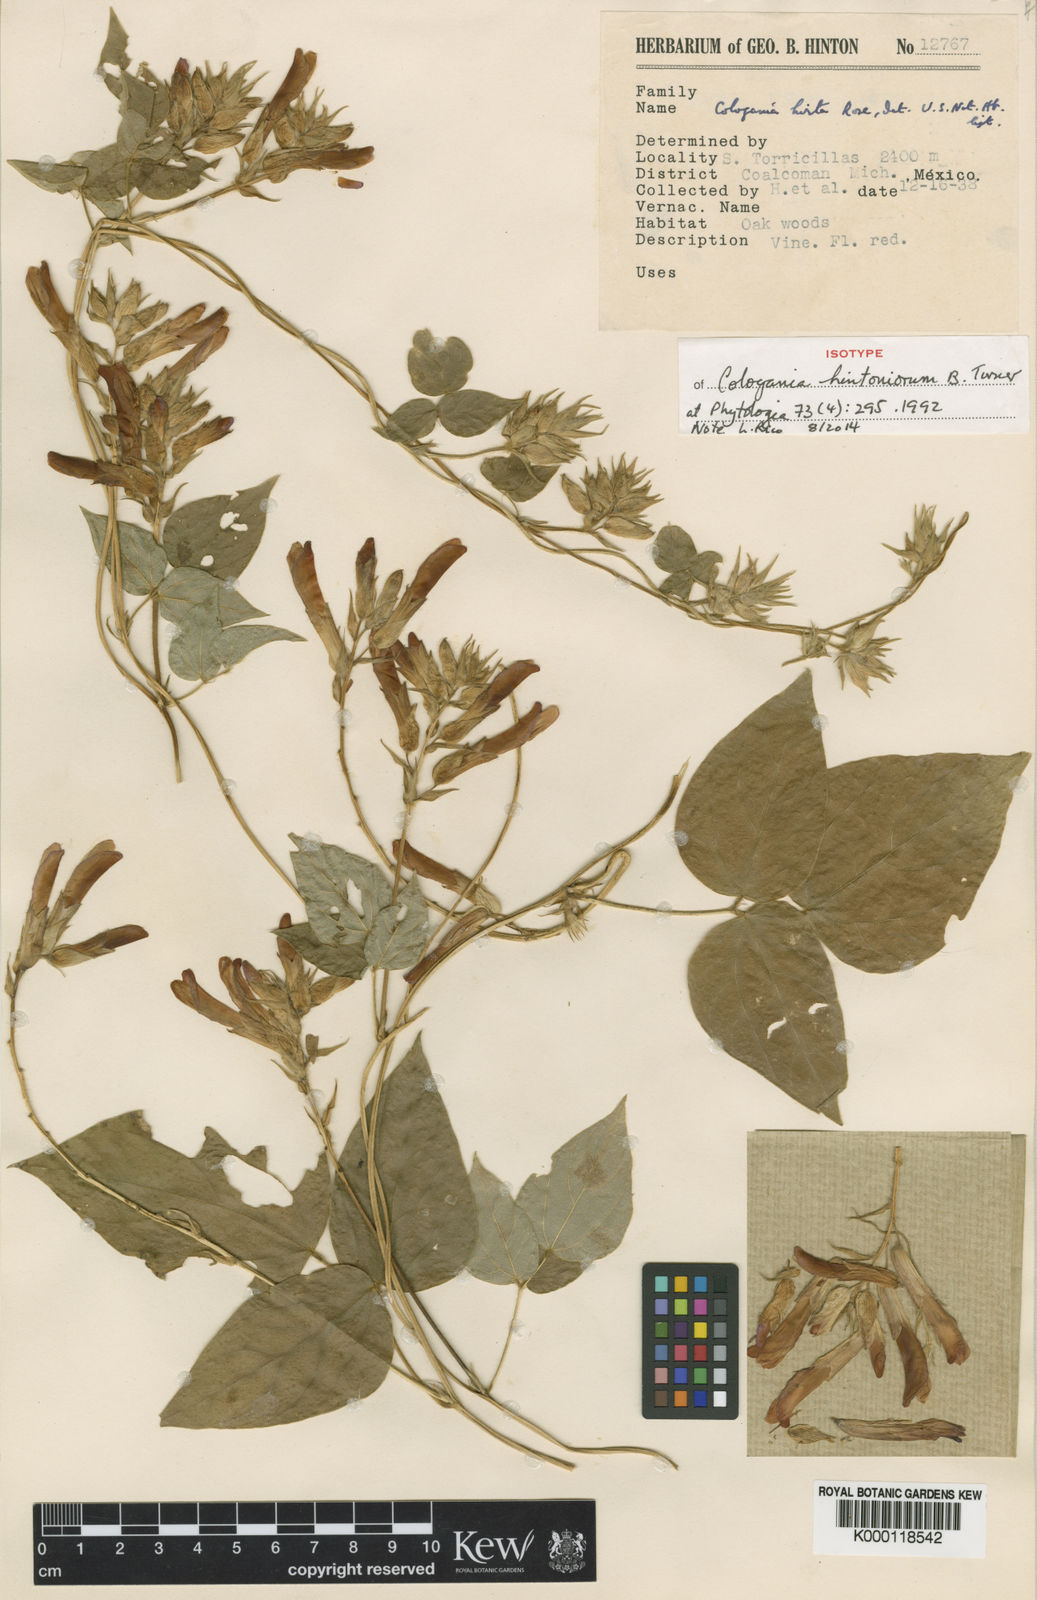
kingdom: Plantae
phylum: Tracheophyta
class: Magnoliopsida
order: Fabales
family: Fabaceae
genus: Cologania
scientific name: Cologania hintoniorum
